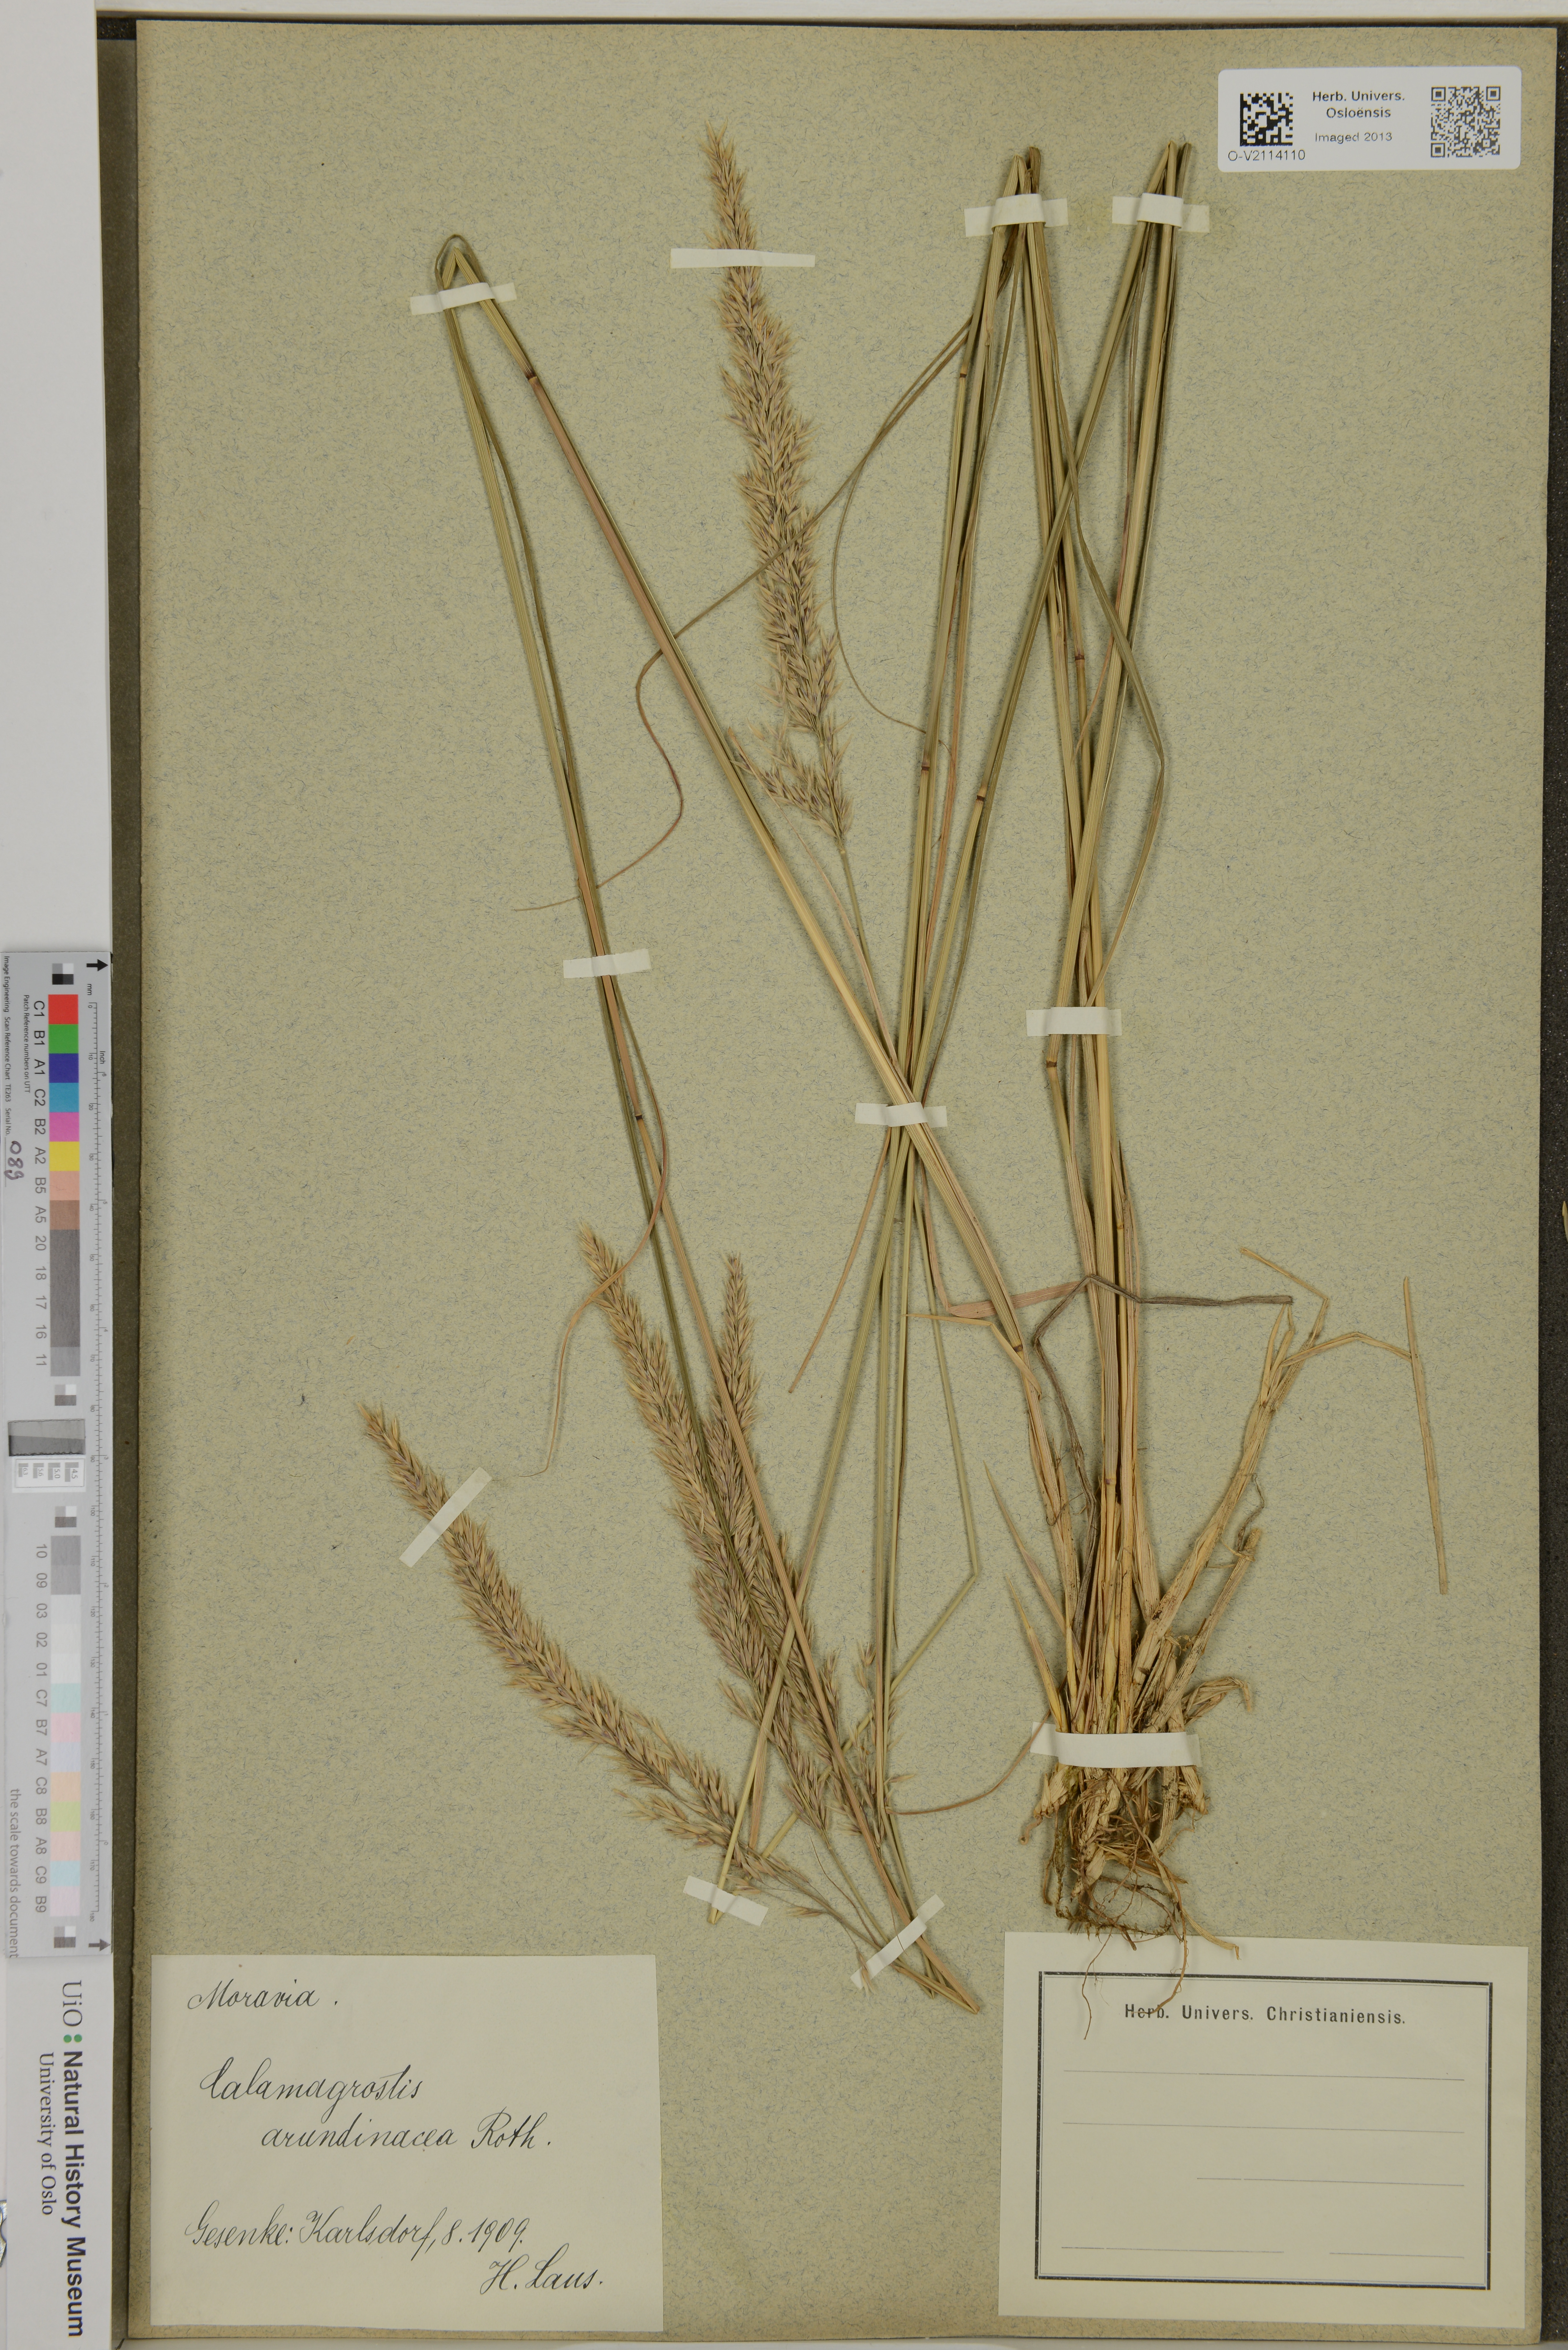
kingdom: Plantae
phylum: Tracheophyta
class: Liliopsida
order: Poales
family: Poaceae
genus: Calamagrostis
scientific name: Calamagrostis arundinacea
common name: Metskastik
